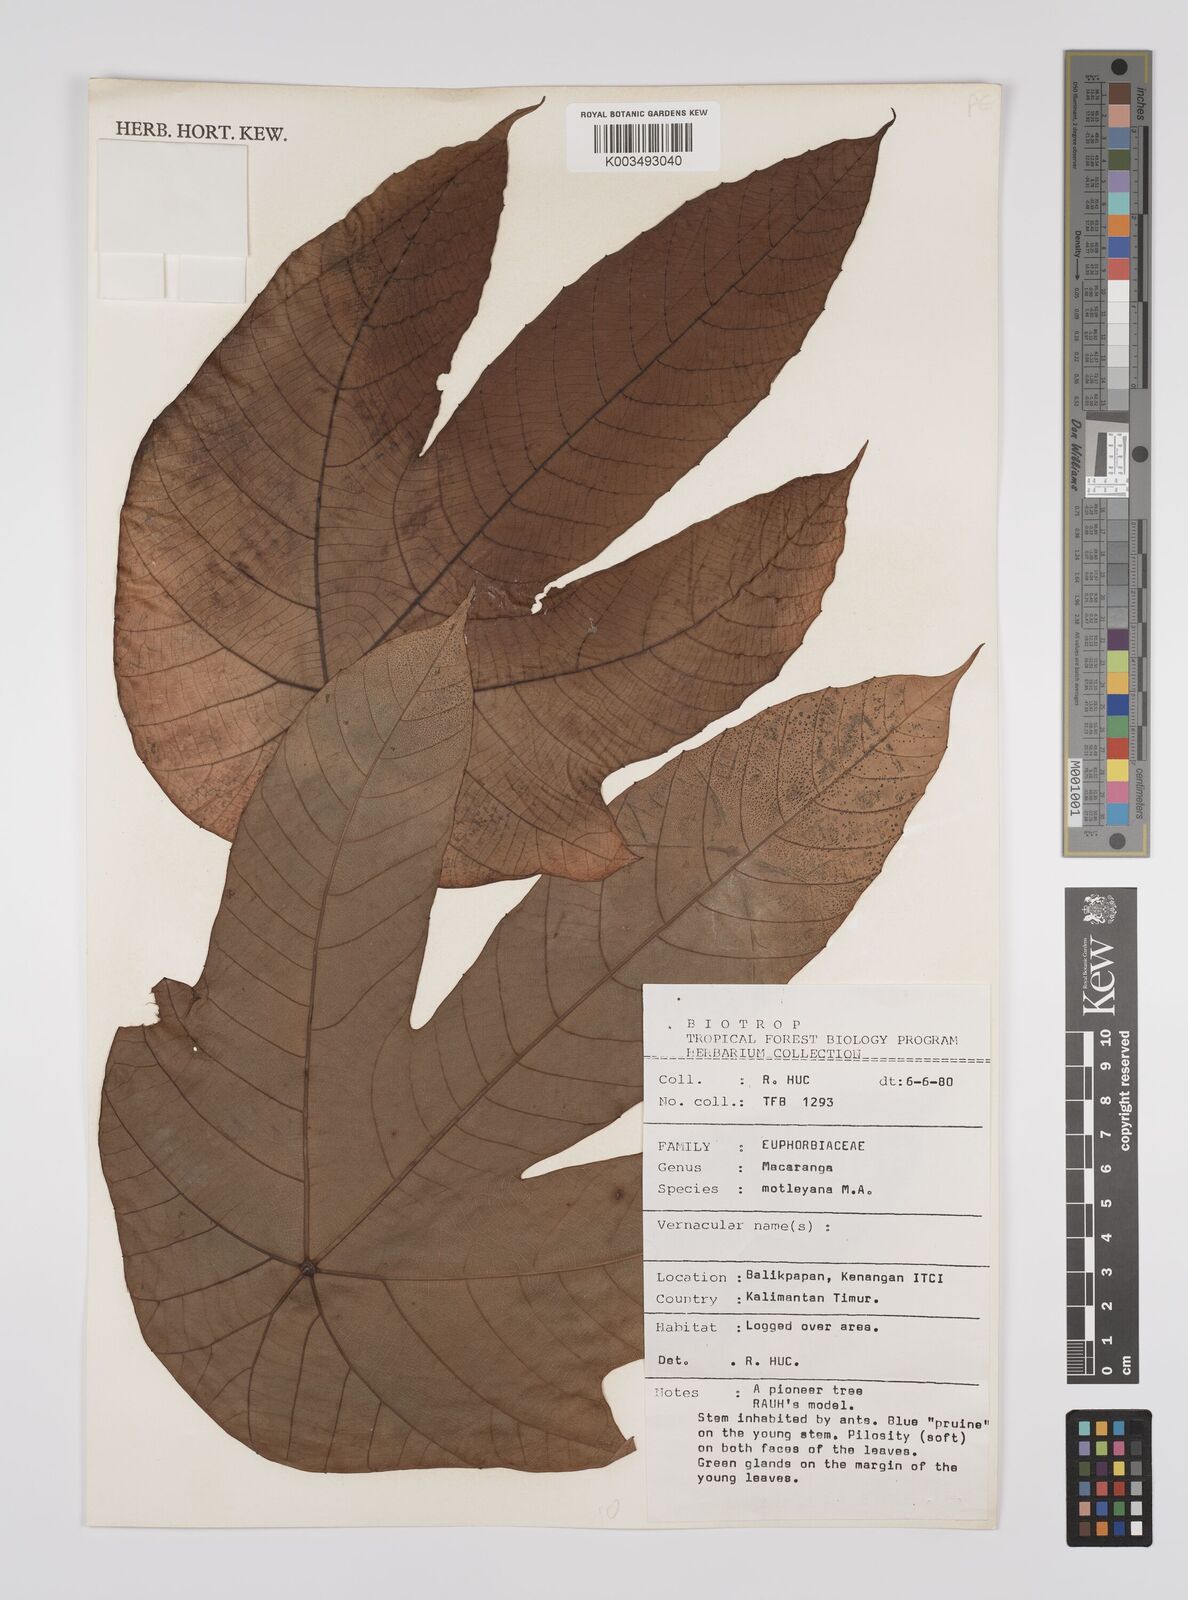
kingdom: Plantae
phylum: Tracheophyta
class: Magnoliopsida
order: Malpighiales
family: Euphorbiaceae
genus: Macaranga
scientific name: Macaranga motleyana
